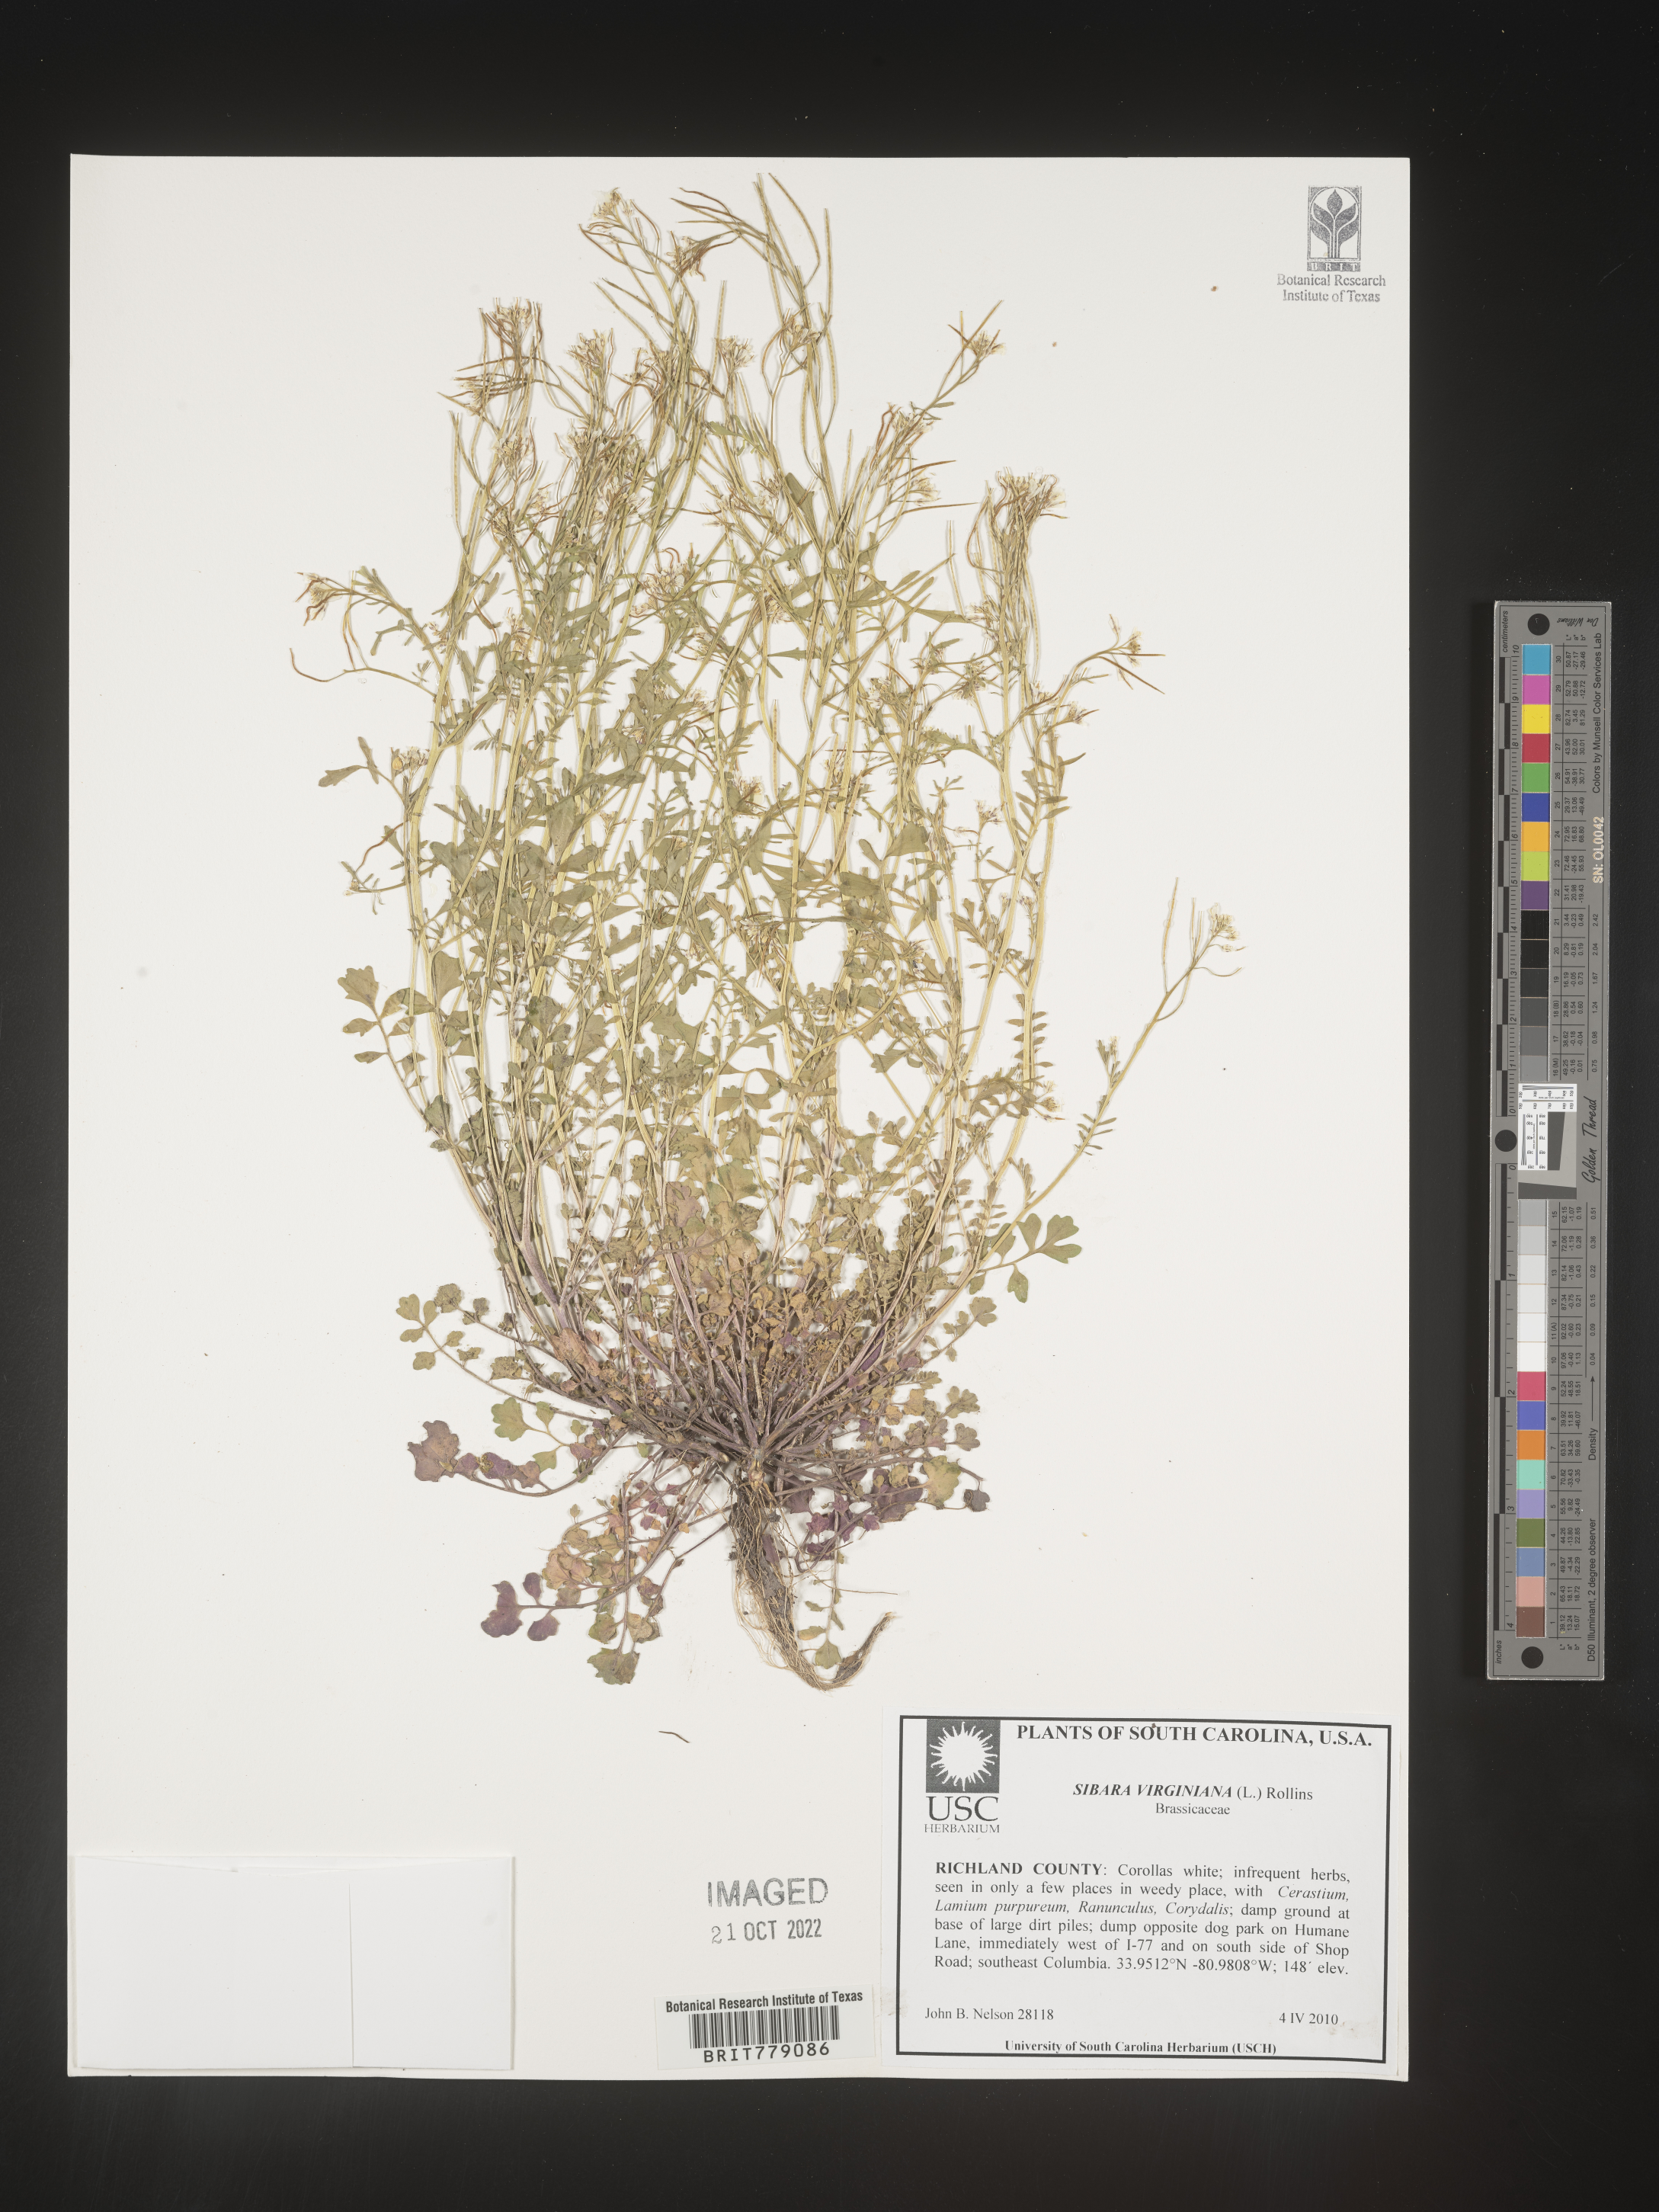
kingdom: Plantae
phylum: Tracheophyta
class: Magnoliopsida
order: Brassicales
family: Brassicaceae
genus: Sibara
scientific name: Sibara
